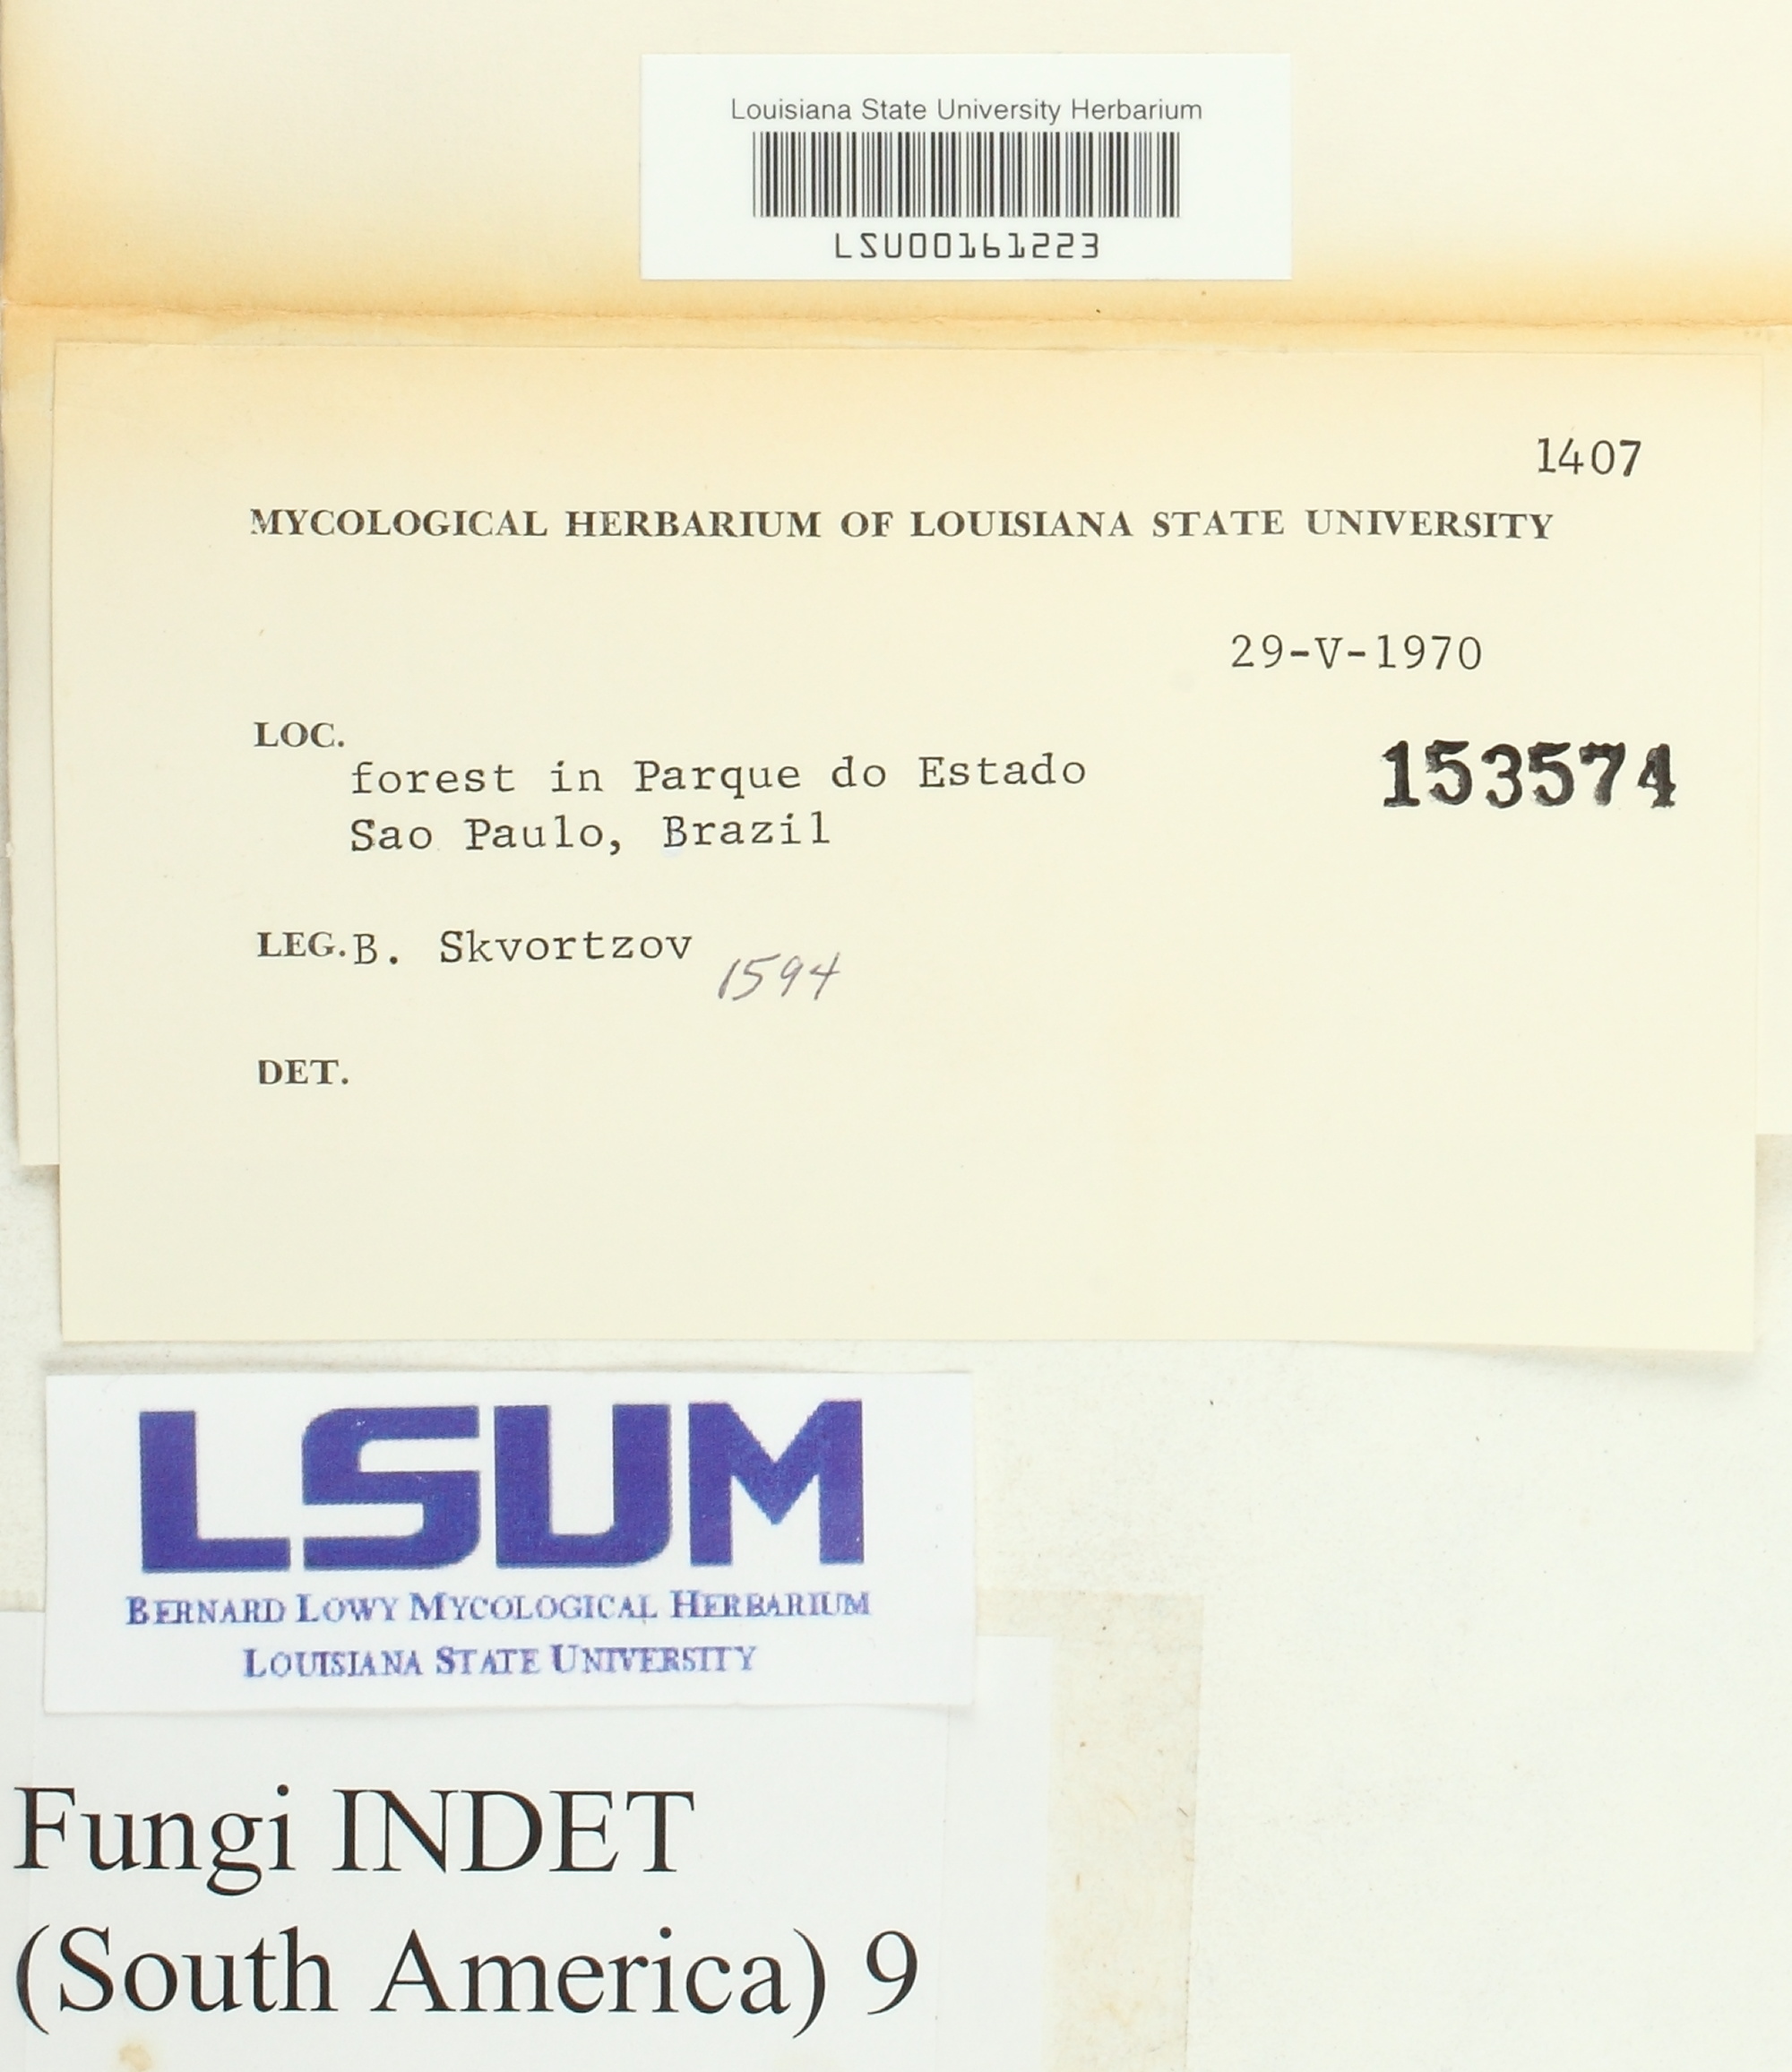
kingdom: Fungi
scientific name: Fungi
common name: Fungi
